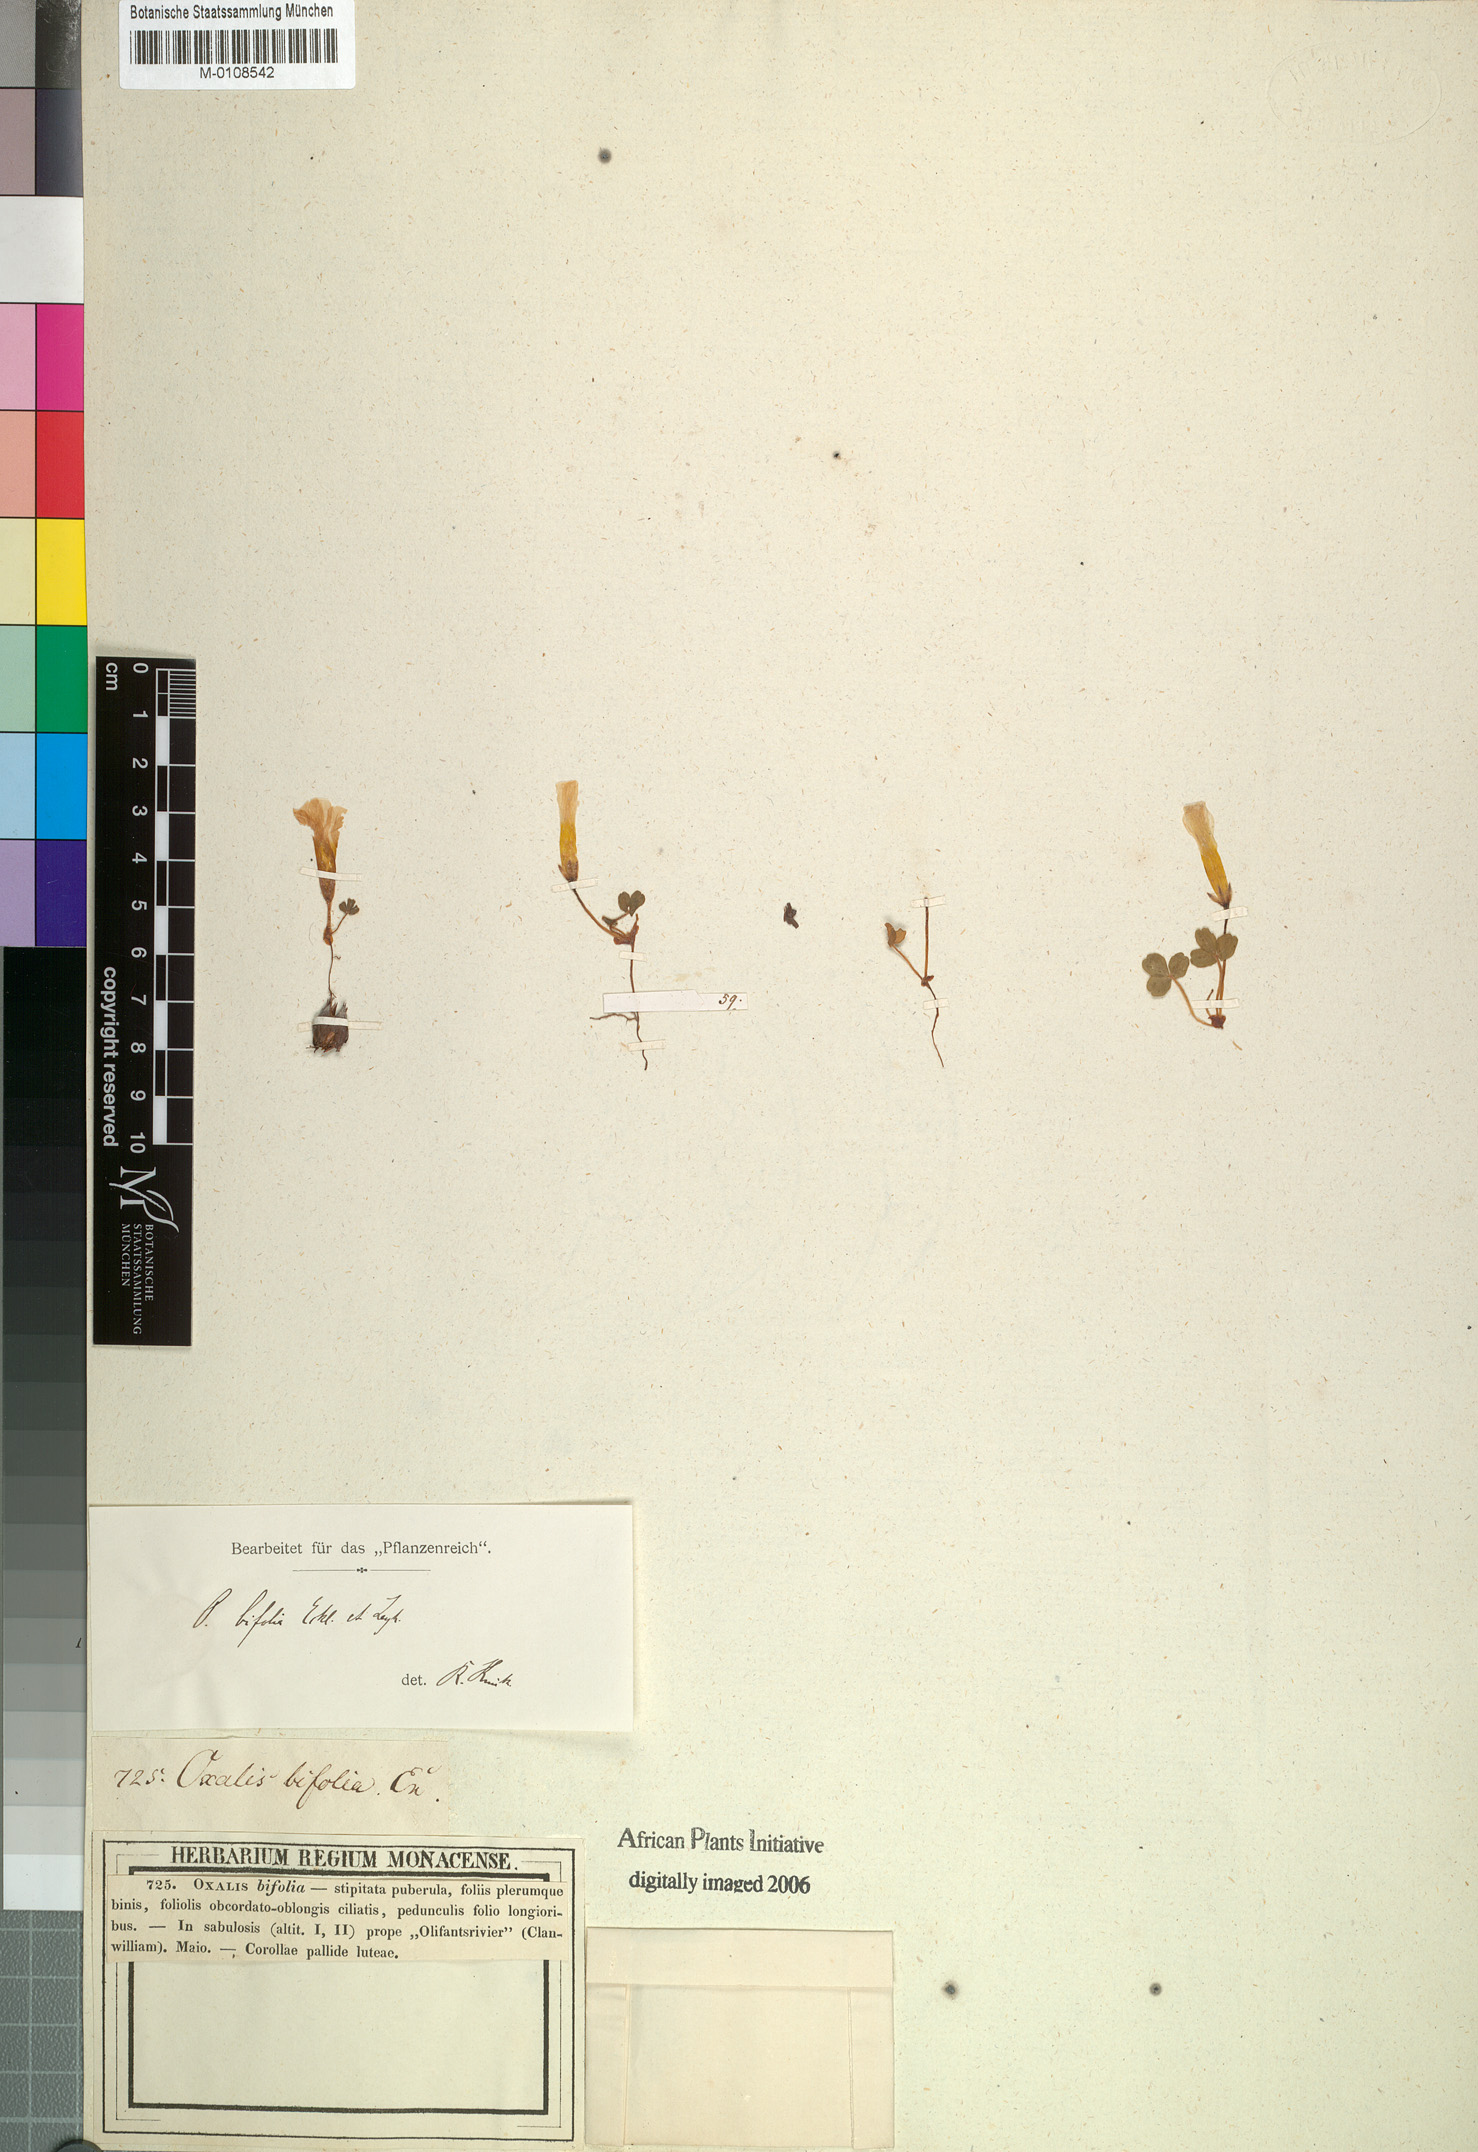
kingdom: Plantae
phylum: Tracheophyta
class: Magnoliopsida
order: Oxalidales
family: Oxalidaceae
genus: Oxalis
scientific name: Oxalis eckloniana
